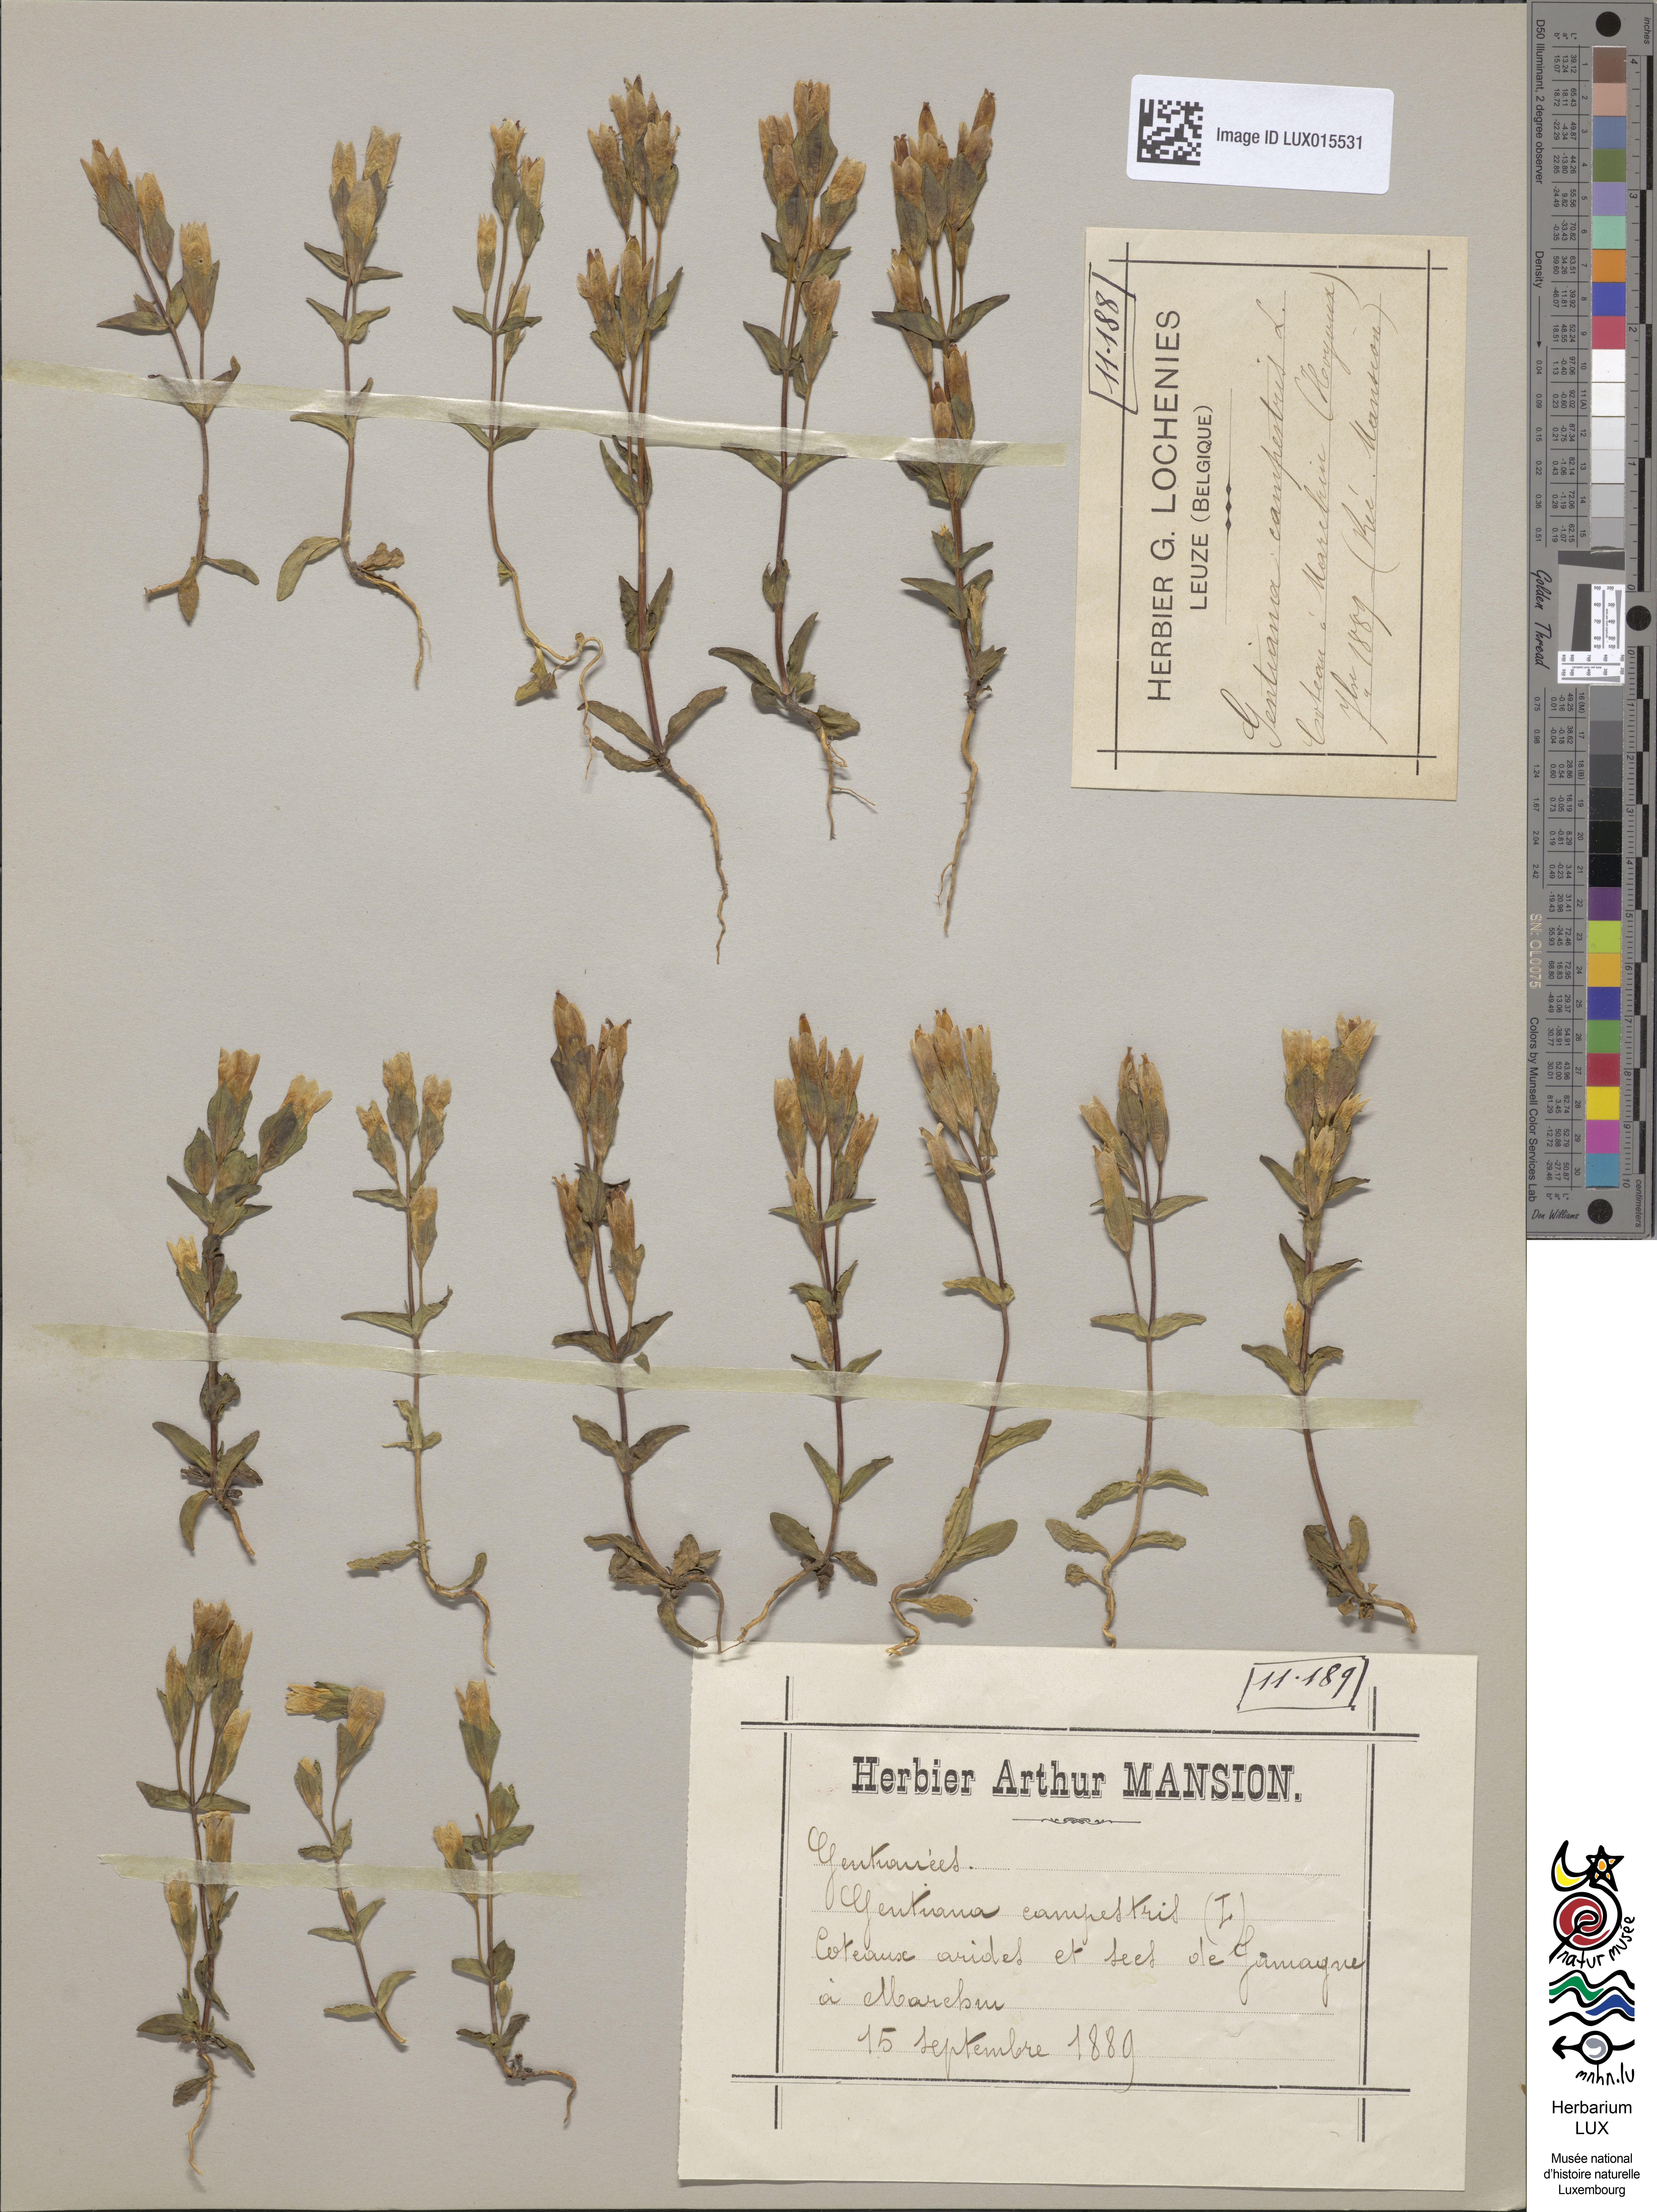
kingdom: Plantae
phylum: Tracheophyta
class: Magnoliopsida
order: Gentianales
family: Gentianaceae
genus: Gentianella
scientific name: Gentianella campestris
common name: Field gentian
